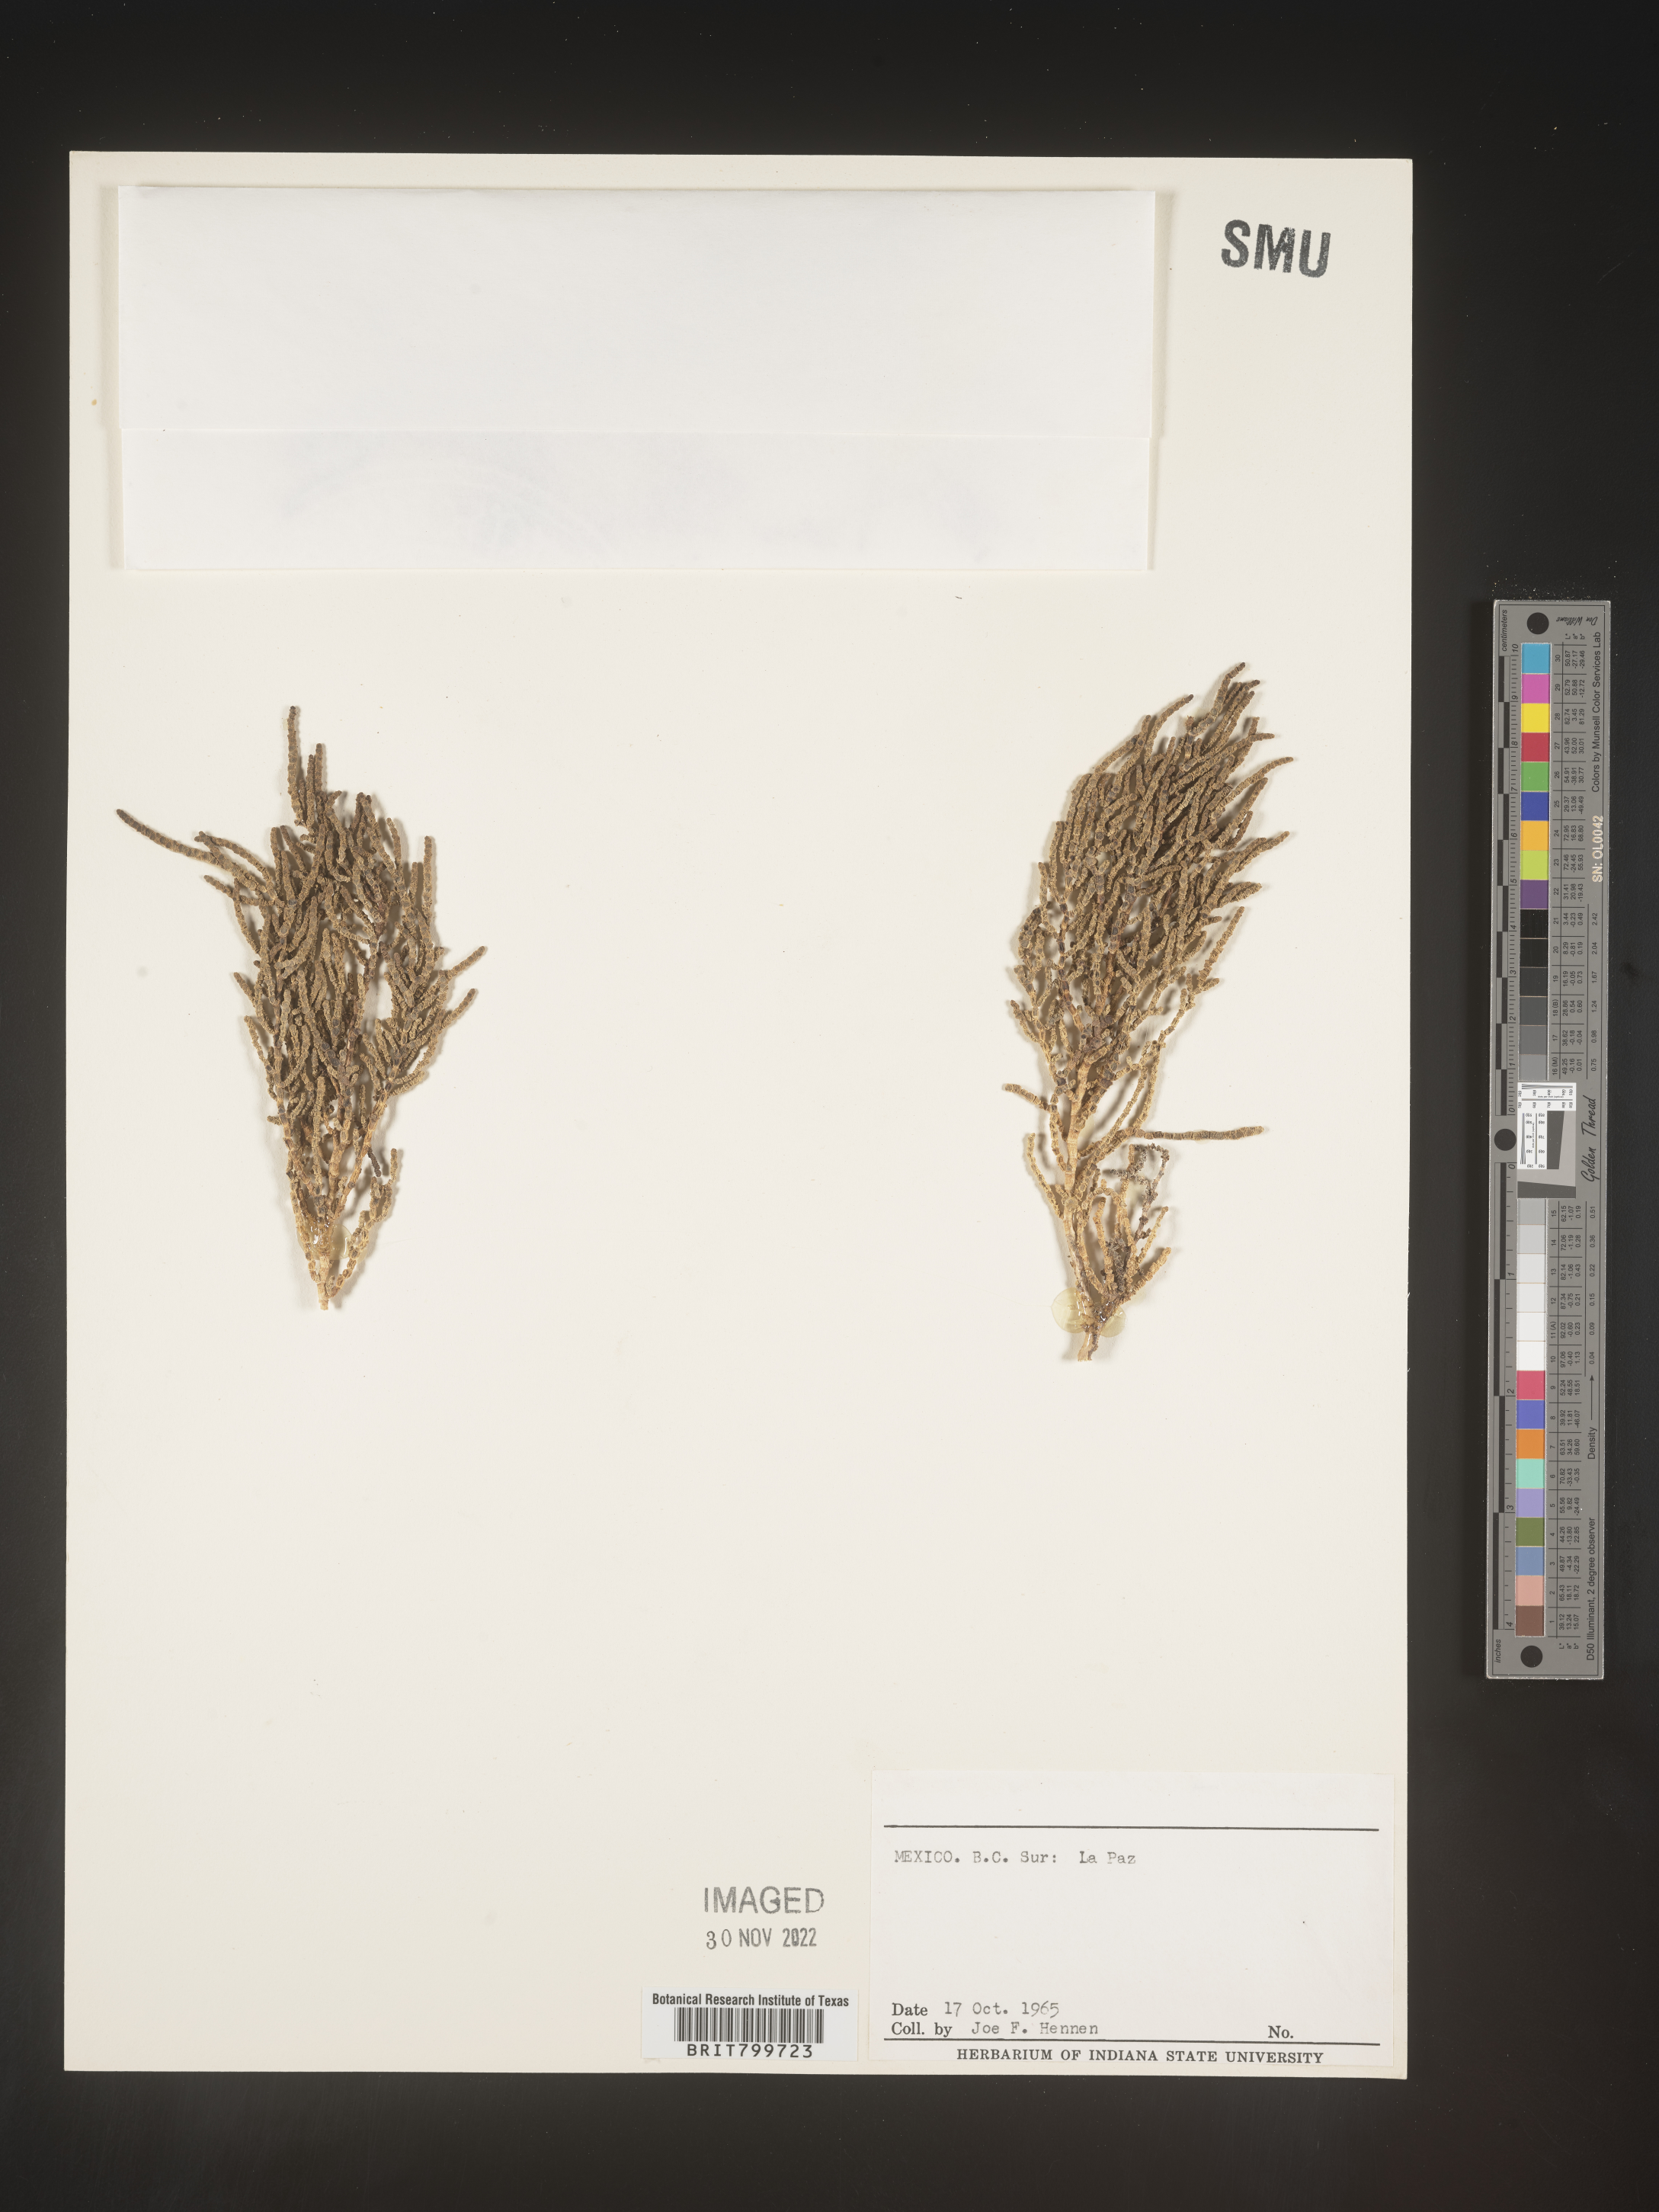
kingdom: Plantae
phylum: Tracheophyta
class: Magnoliopsida
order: Caryophyllales
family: Amaranthaceae
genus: Salicornia
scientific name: Salicornia
